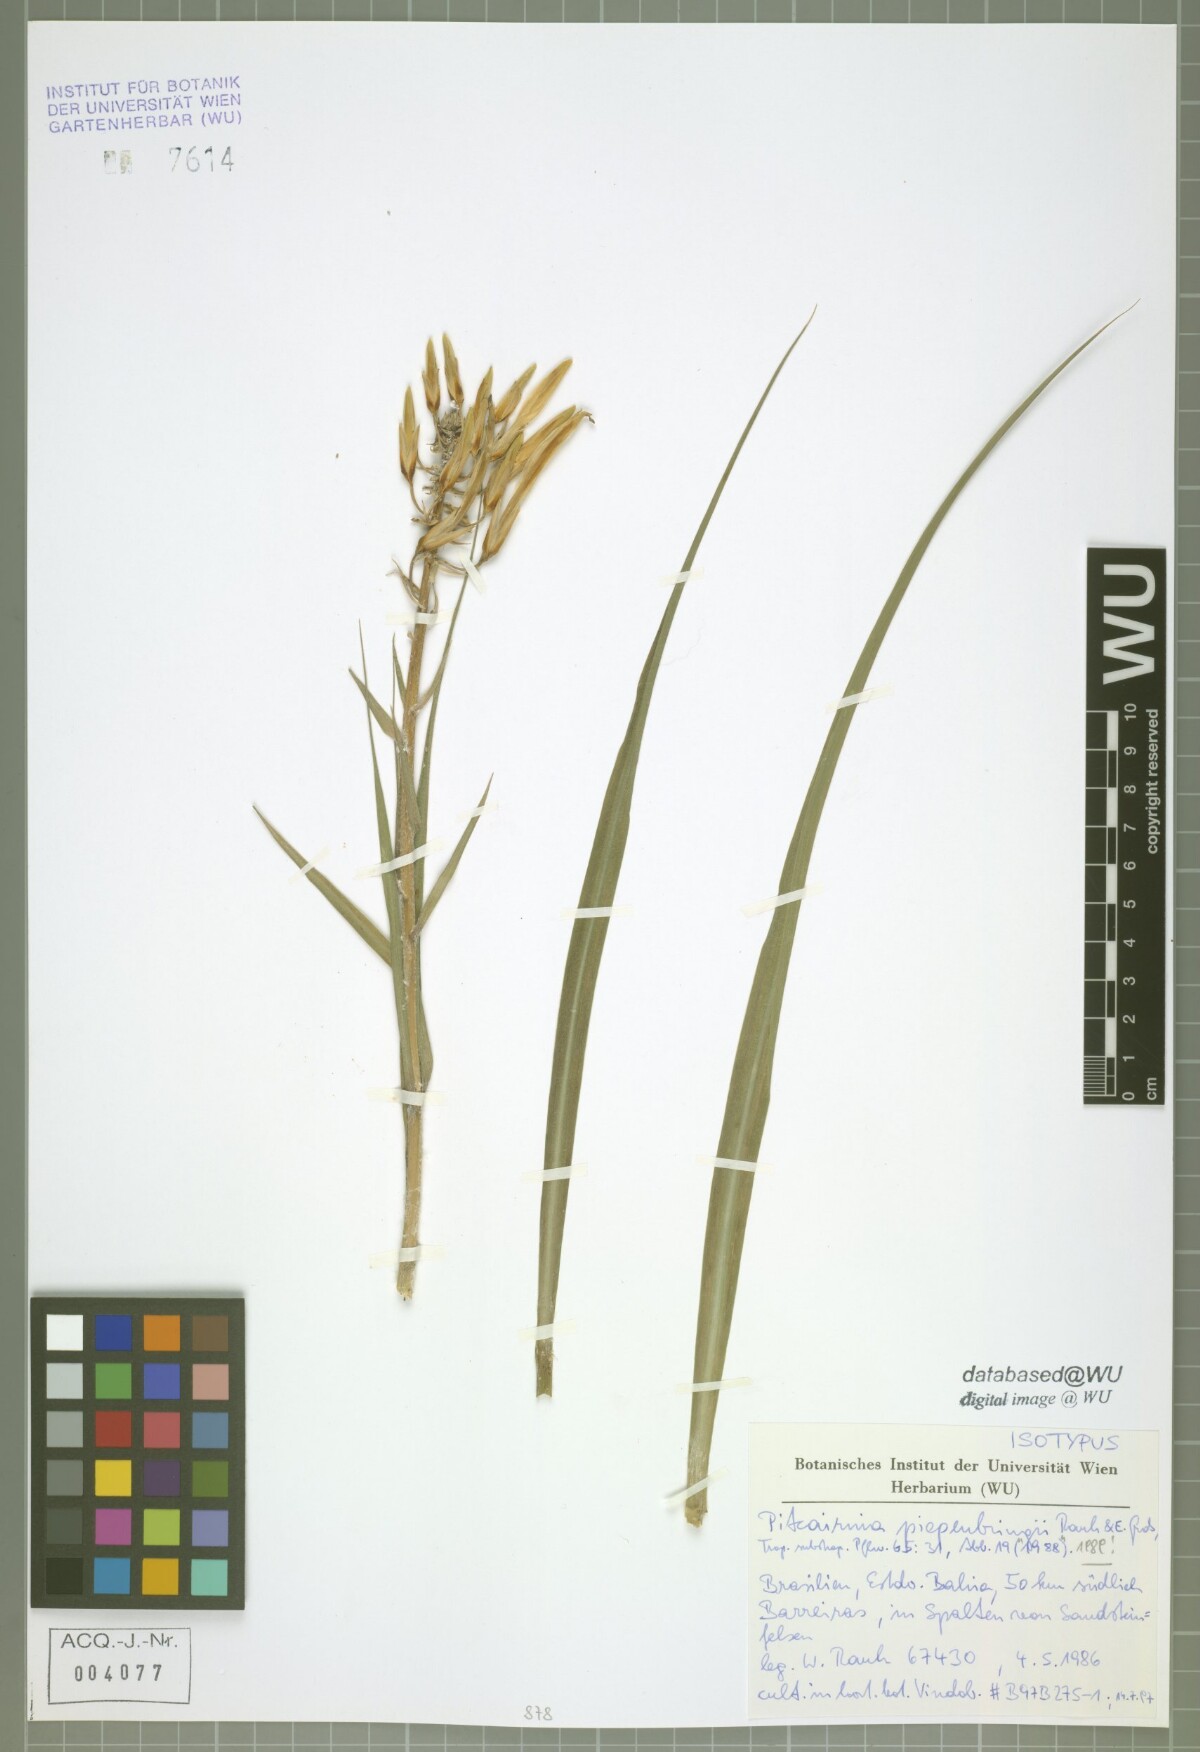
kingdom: Plantae
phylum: Tracheophyta
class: Liliopsida
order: Poales
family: Bromeliaceae
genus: Pitcairnia
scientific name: Pitcairnia piepenbringii
